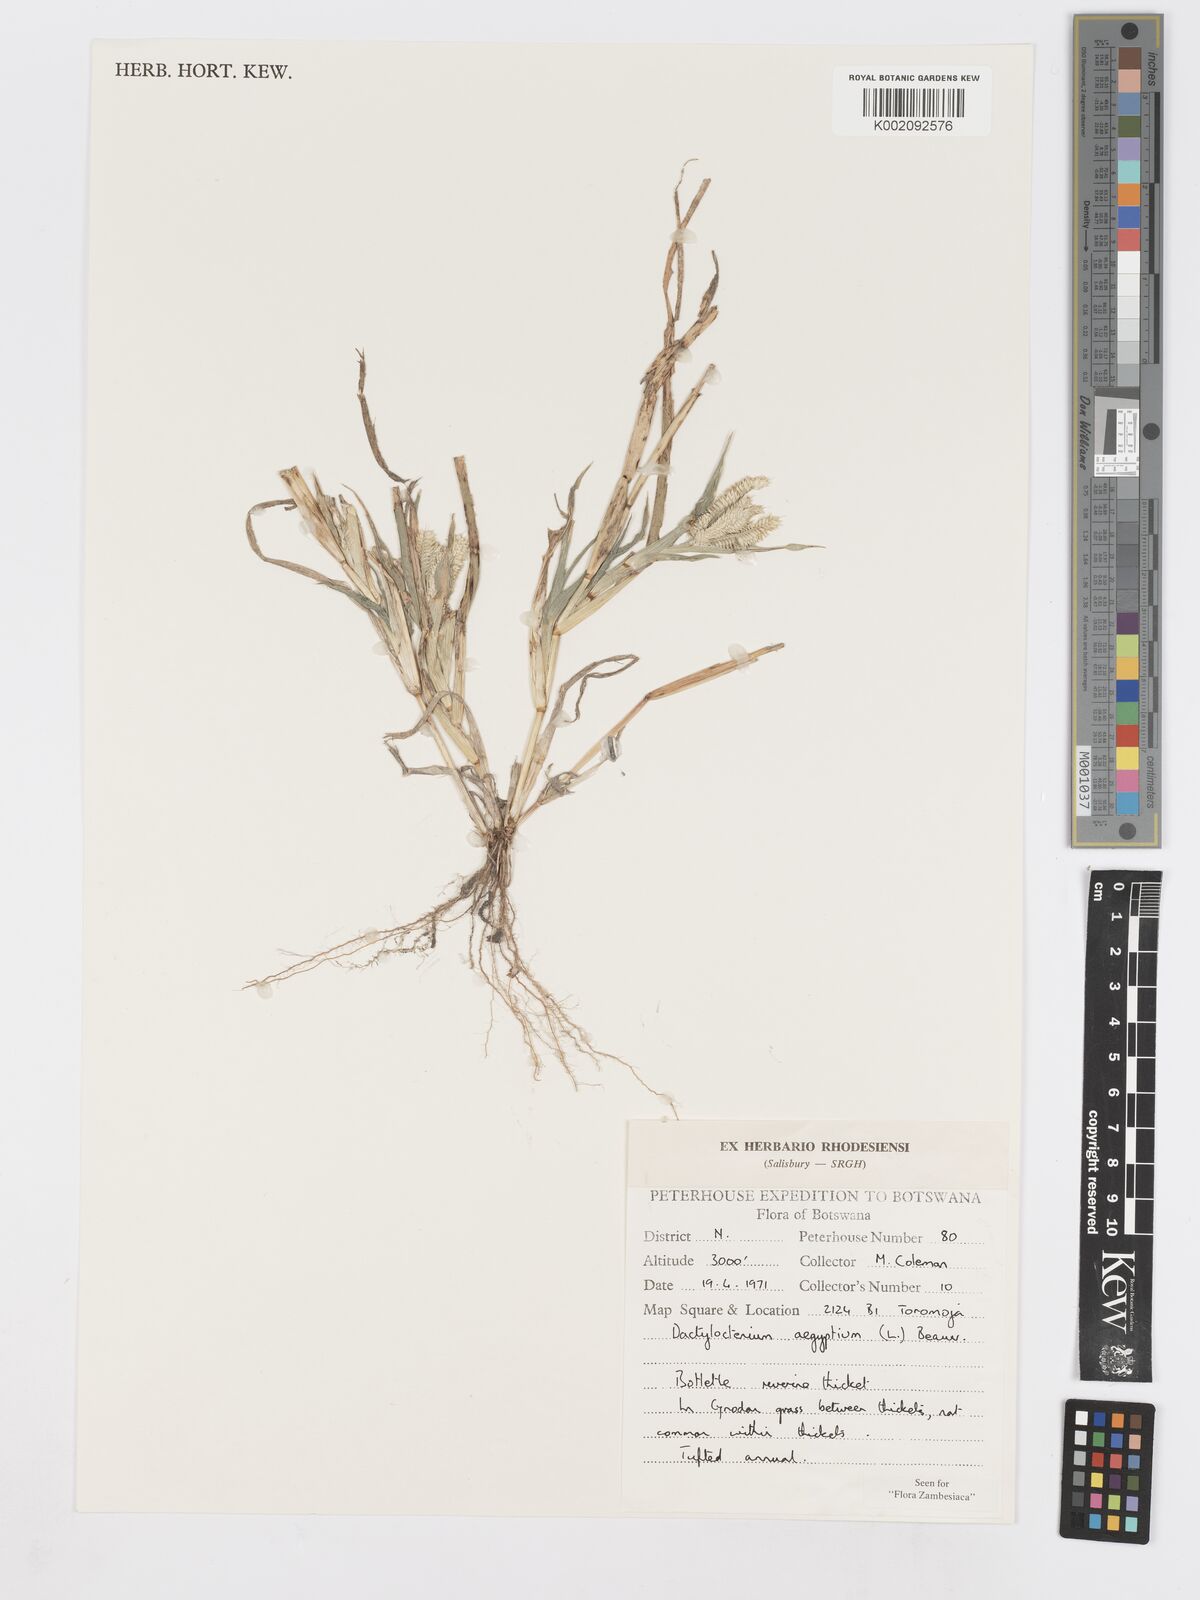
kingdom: Plantae
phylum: Tracheophyta
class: Liliopsida
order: Poales
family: Poaceae
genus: Dactyloctenium
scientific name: Dactyloctenium aegyptium
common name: Egyptian grass
